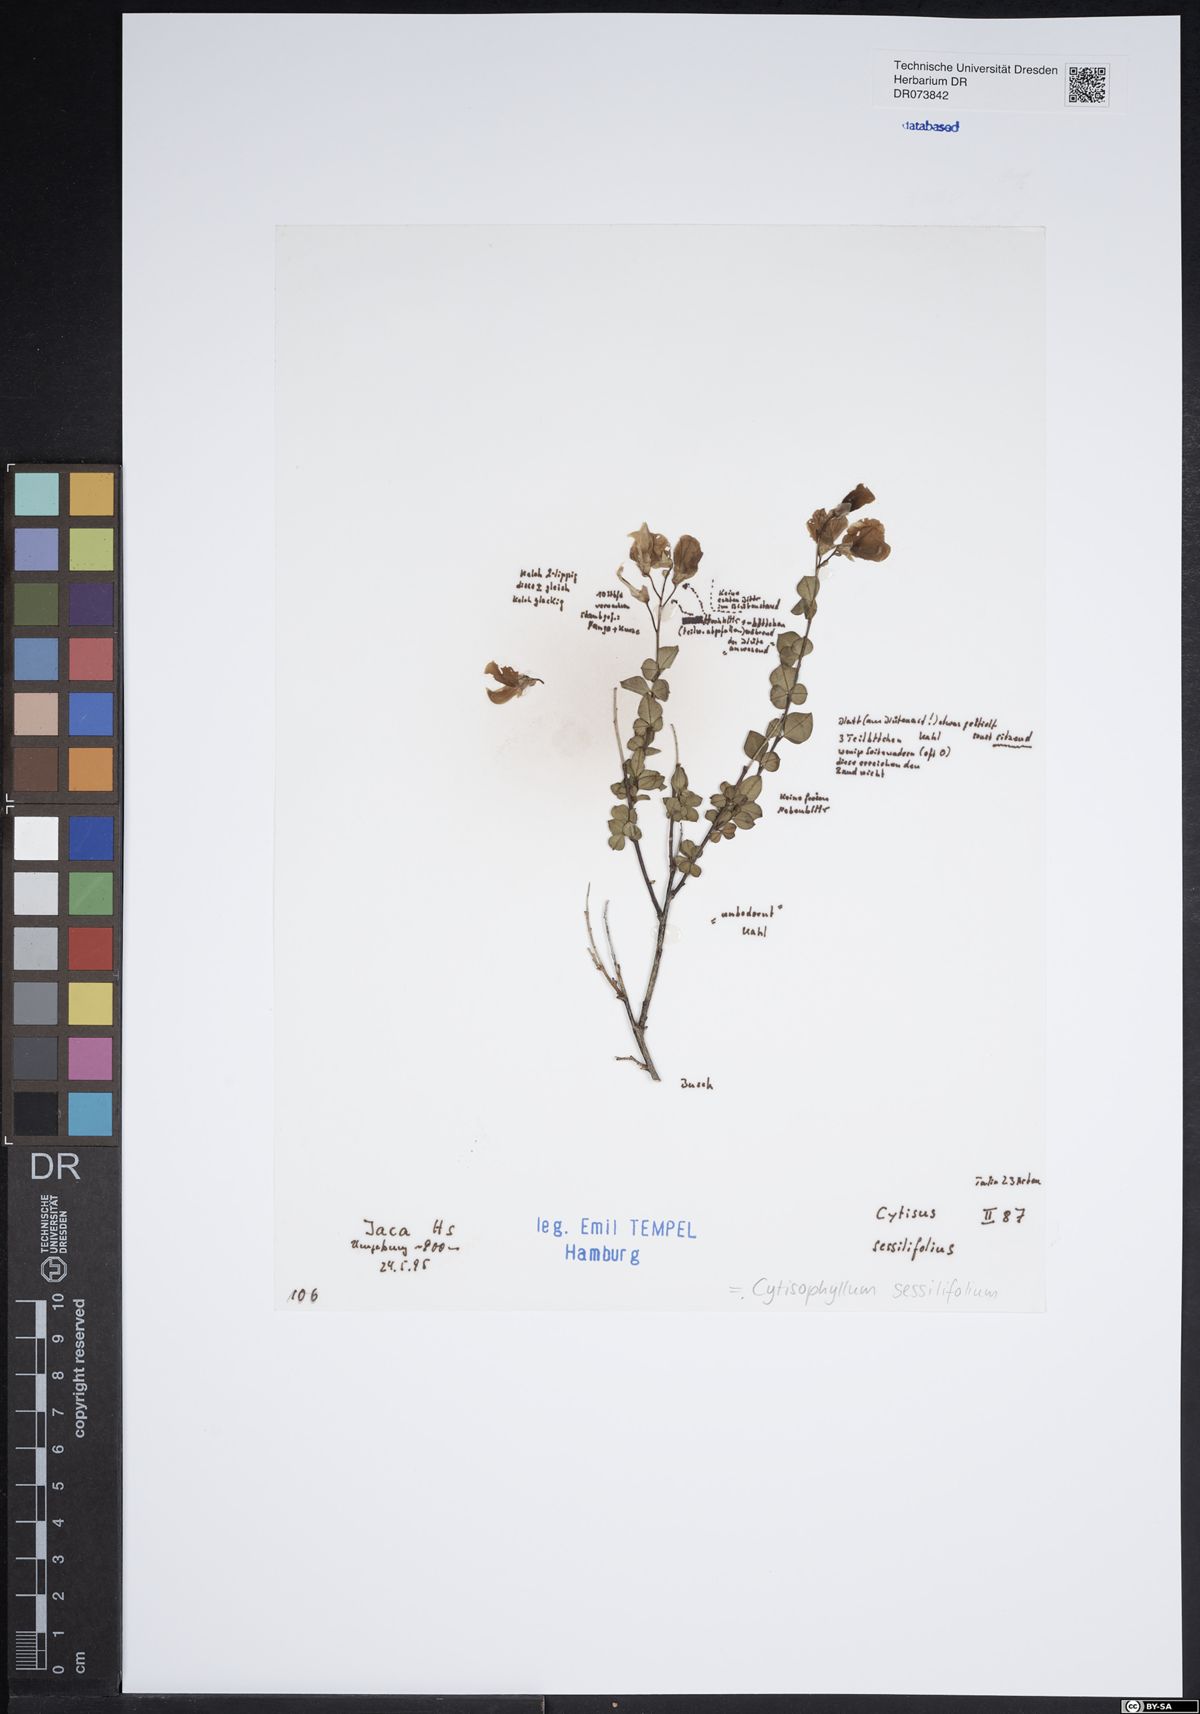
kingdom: Plantae
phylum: Tracheophyta
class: Magnoliopsida
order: Fabales
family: Fabaceae
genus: Cytisophyllum
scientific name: Cytisophyllum sessilifolium
